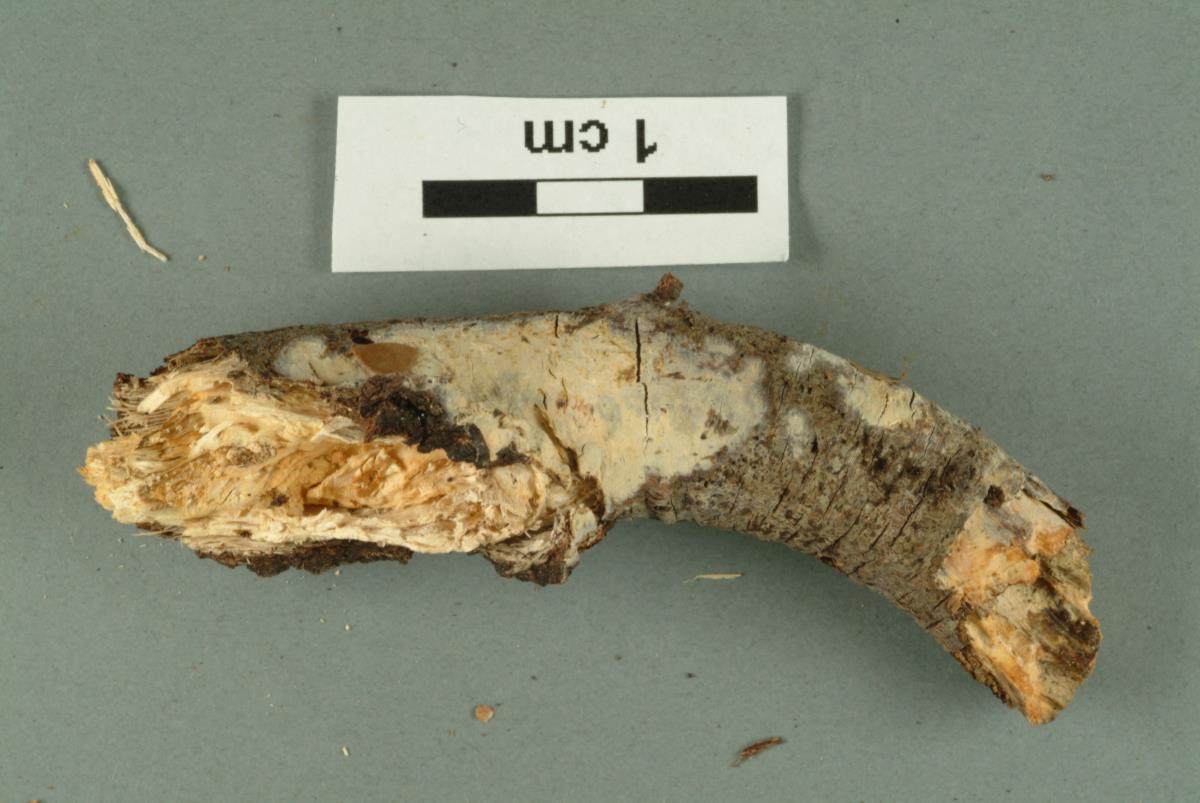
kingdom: Fungi
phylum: Basidiomycota
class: Agaricomycetes
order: Polyporales
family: Steccherinaceae
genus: Steccherinum
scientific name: Steccherinum ochraceum
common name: Ochre spreading tooth
